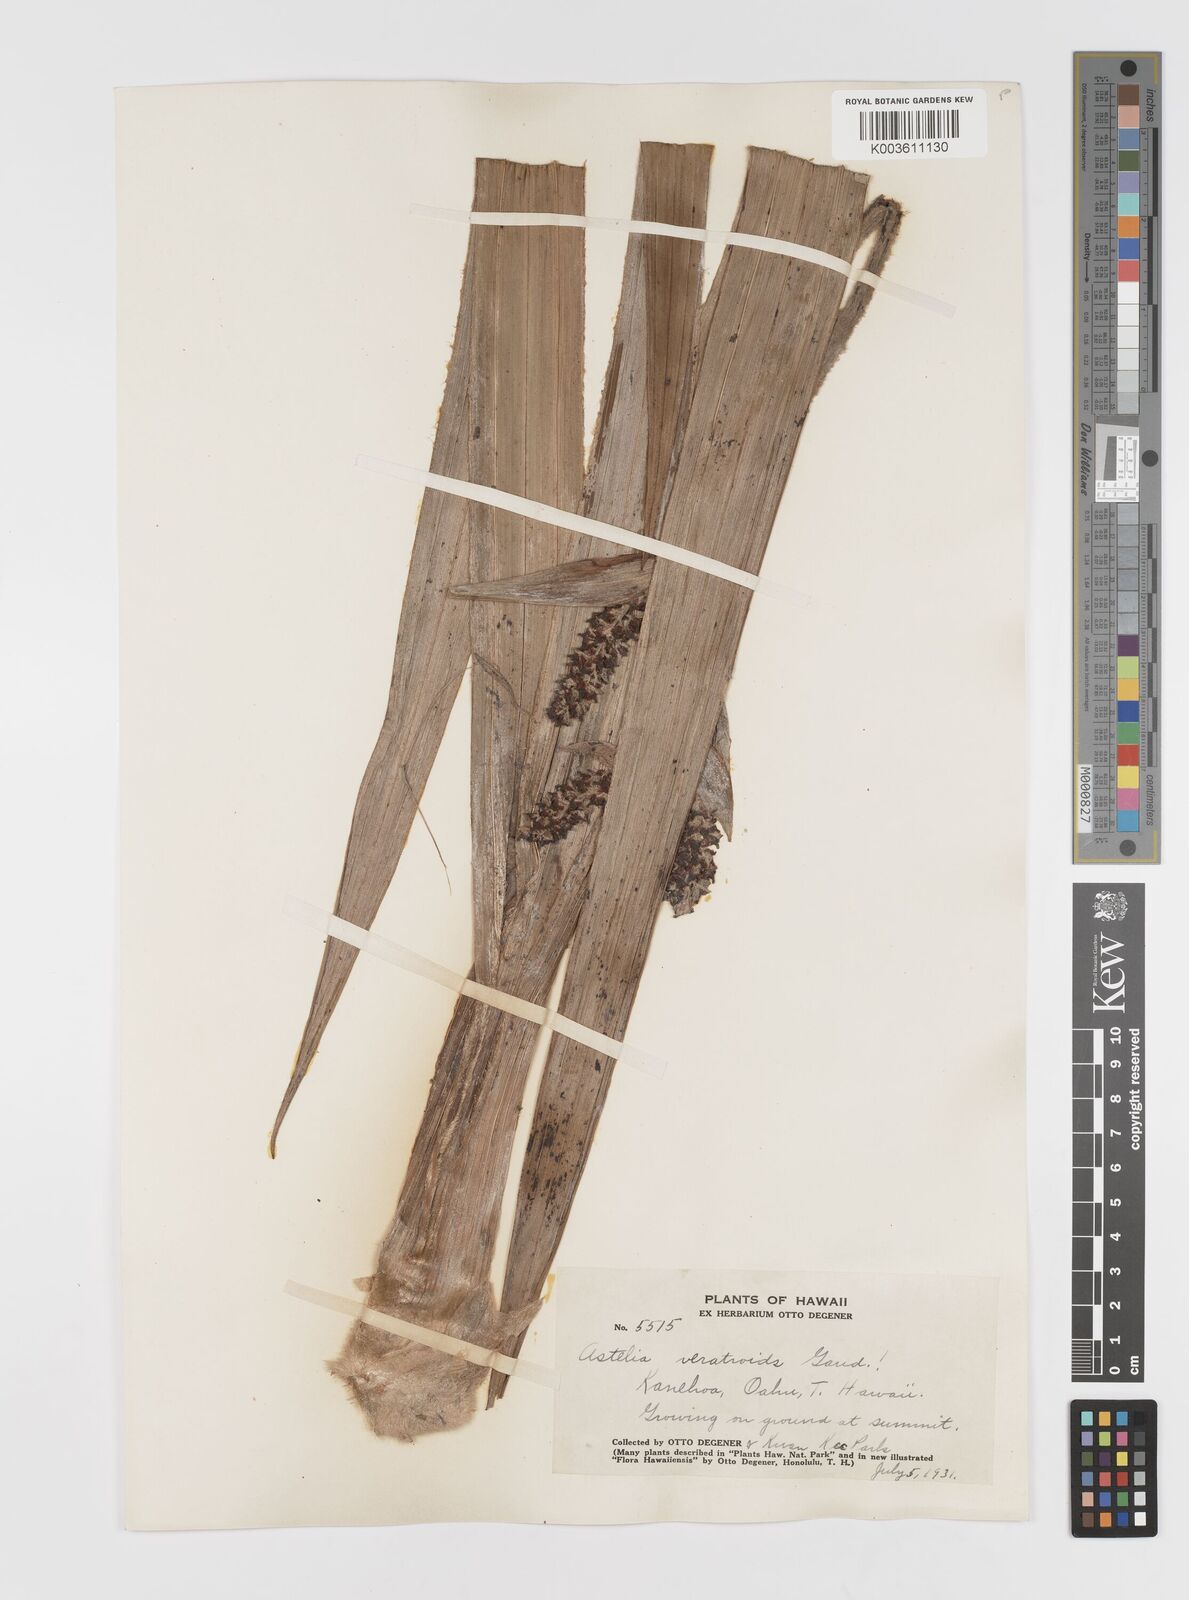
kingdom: Plantae
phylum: Tracheophyta
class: Liliopsida
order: Asparagales
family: Asteliaceae
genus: Astelia
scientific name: Astelia menziesiana
